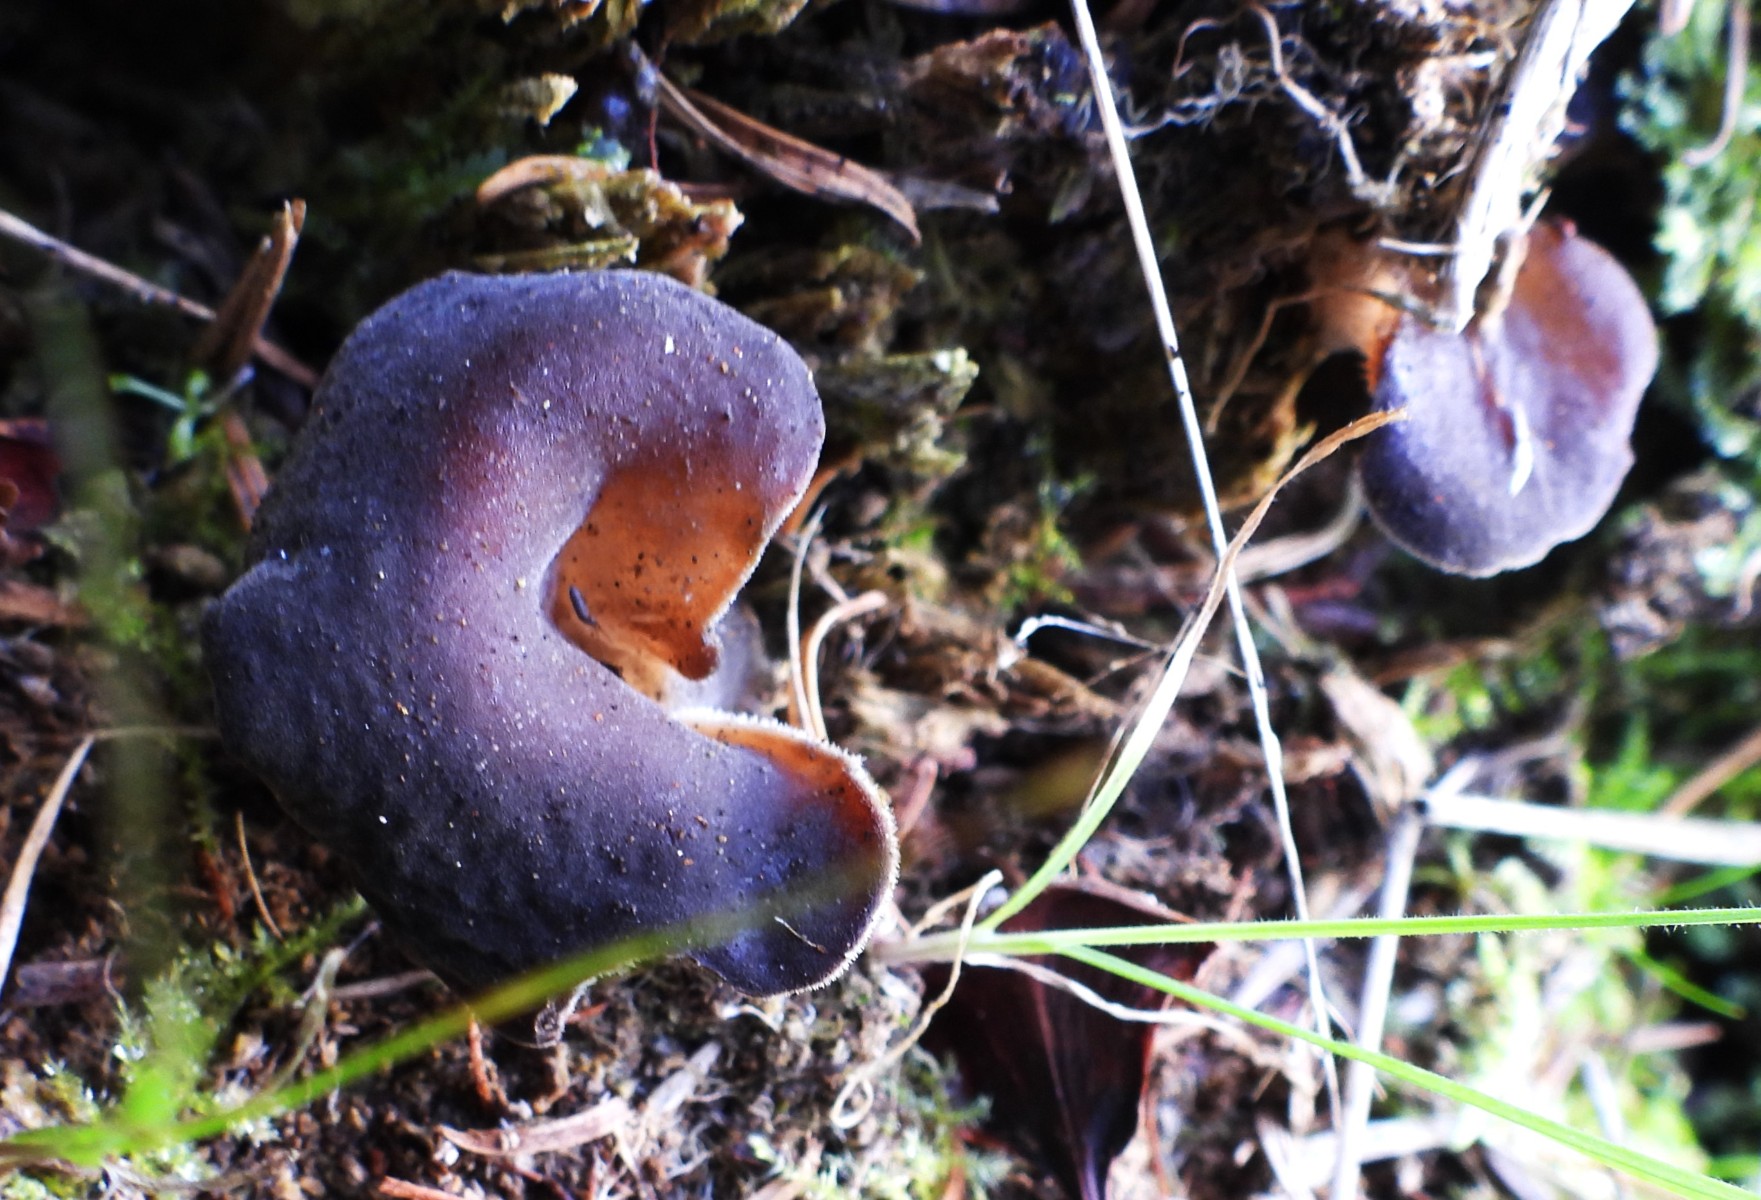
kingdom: Fungi
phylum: Basidiomycota
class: Agaricomycetes
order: Auriculariales
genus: Pseudohydnum
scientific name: Pseudohydnum gelatinosum
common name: bævretand
